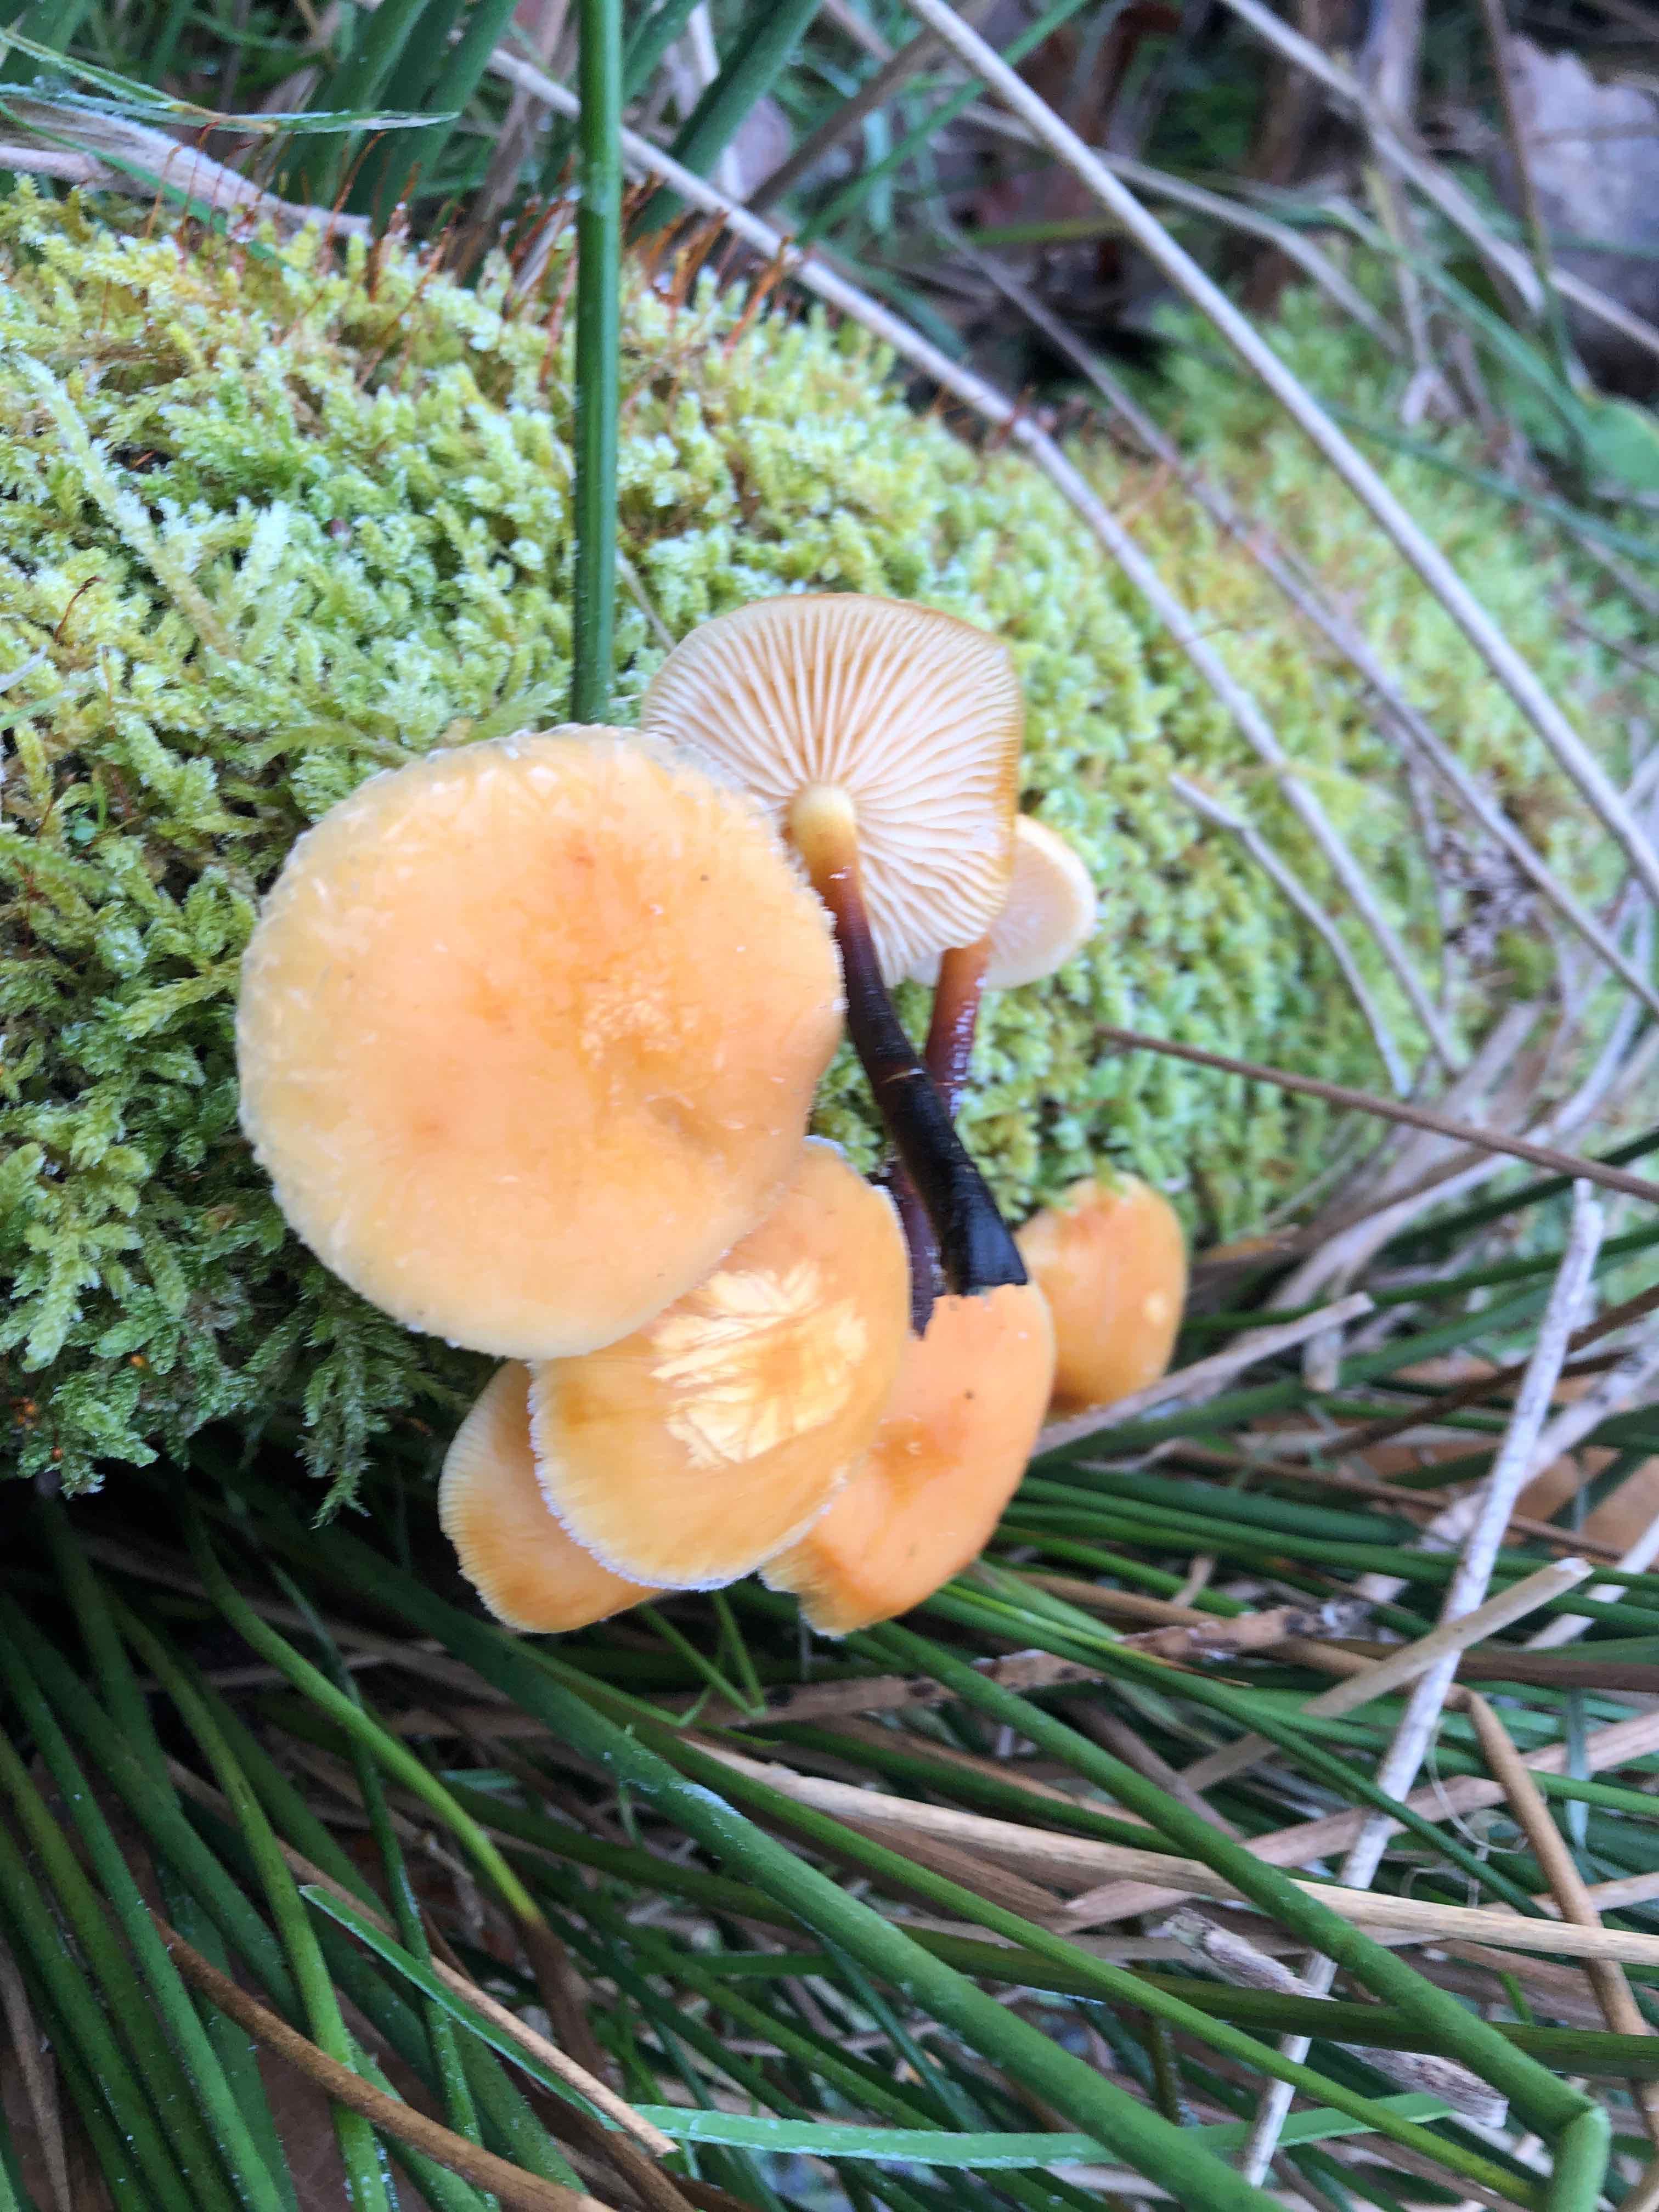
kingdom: Fungi
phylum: Basidiomycota
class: Agaricomycetes
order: Agaricales
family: Physalacriaceae
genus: Flammulina
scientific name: Flammulina elastica
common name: pile-fløjlsfod
